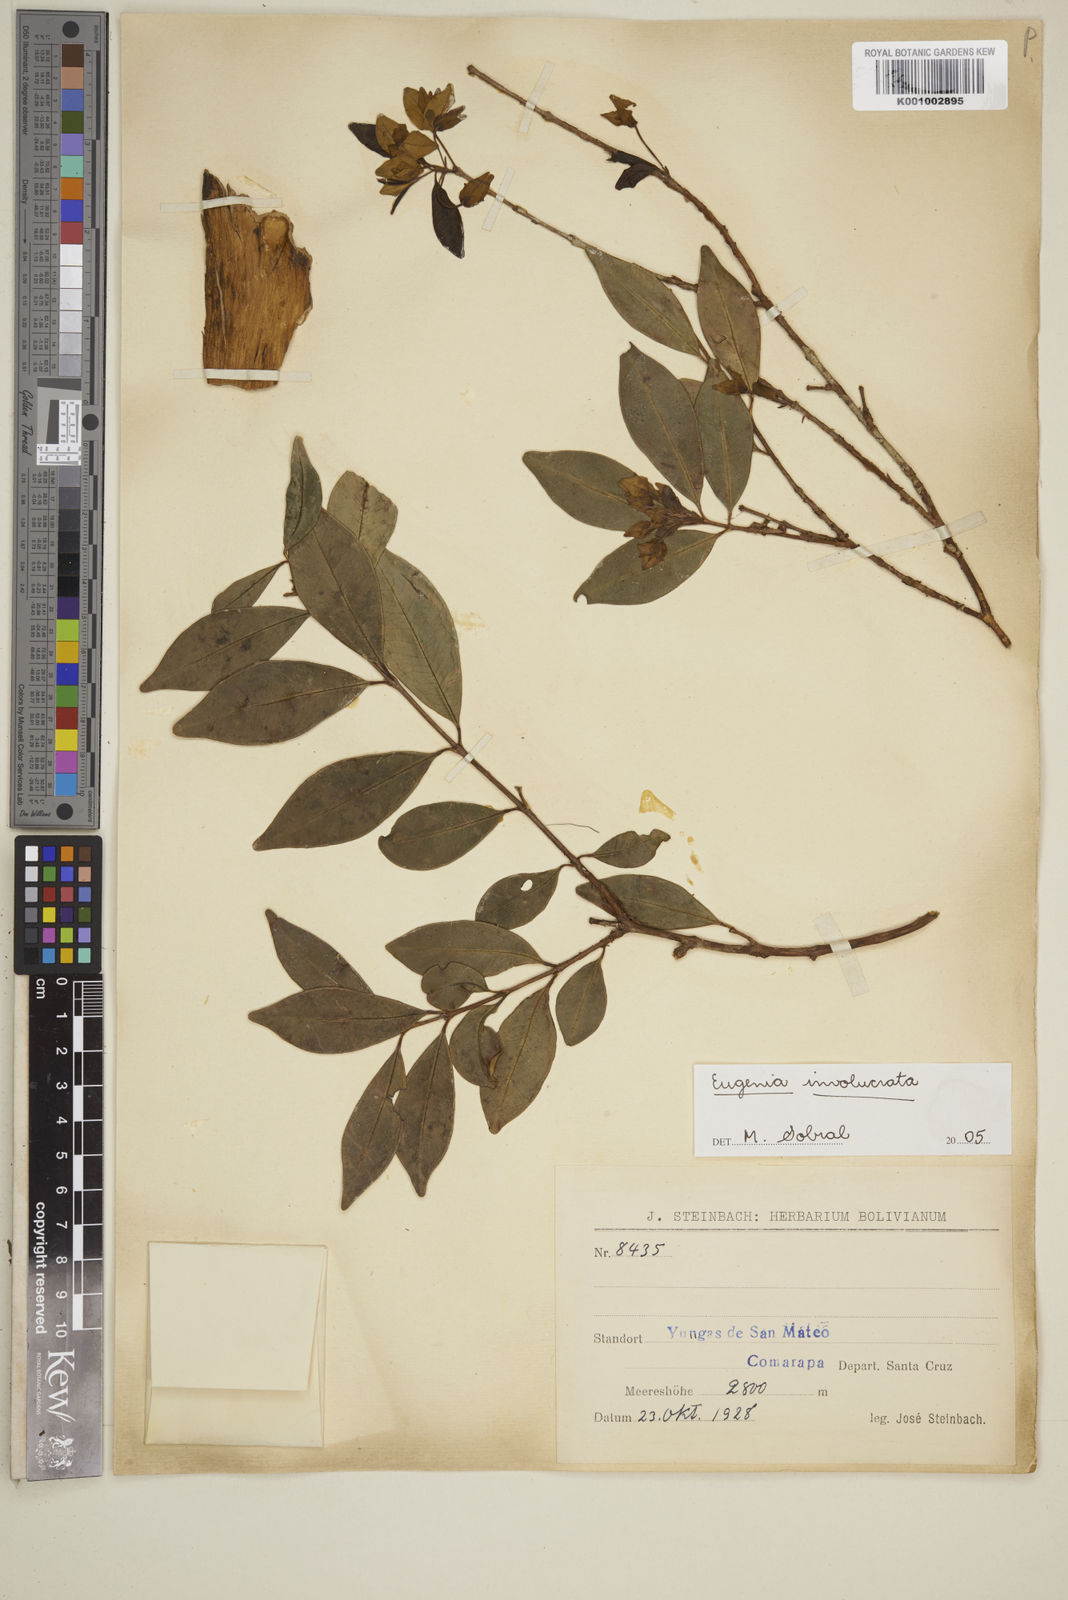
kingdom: Plantae
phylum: Tracheophyta
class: Magnoliopsida
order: Myrtales
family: Myrtaceae
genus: Eugenia
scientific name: Eugenia involucrata
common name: Cherry-of-the-rio grande
